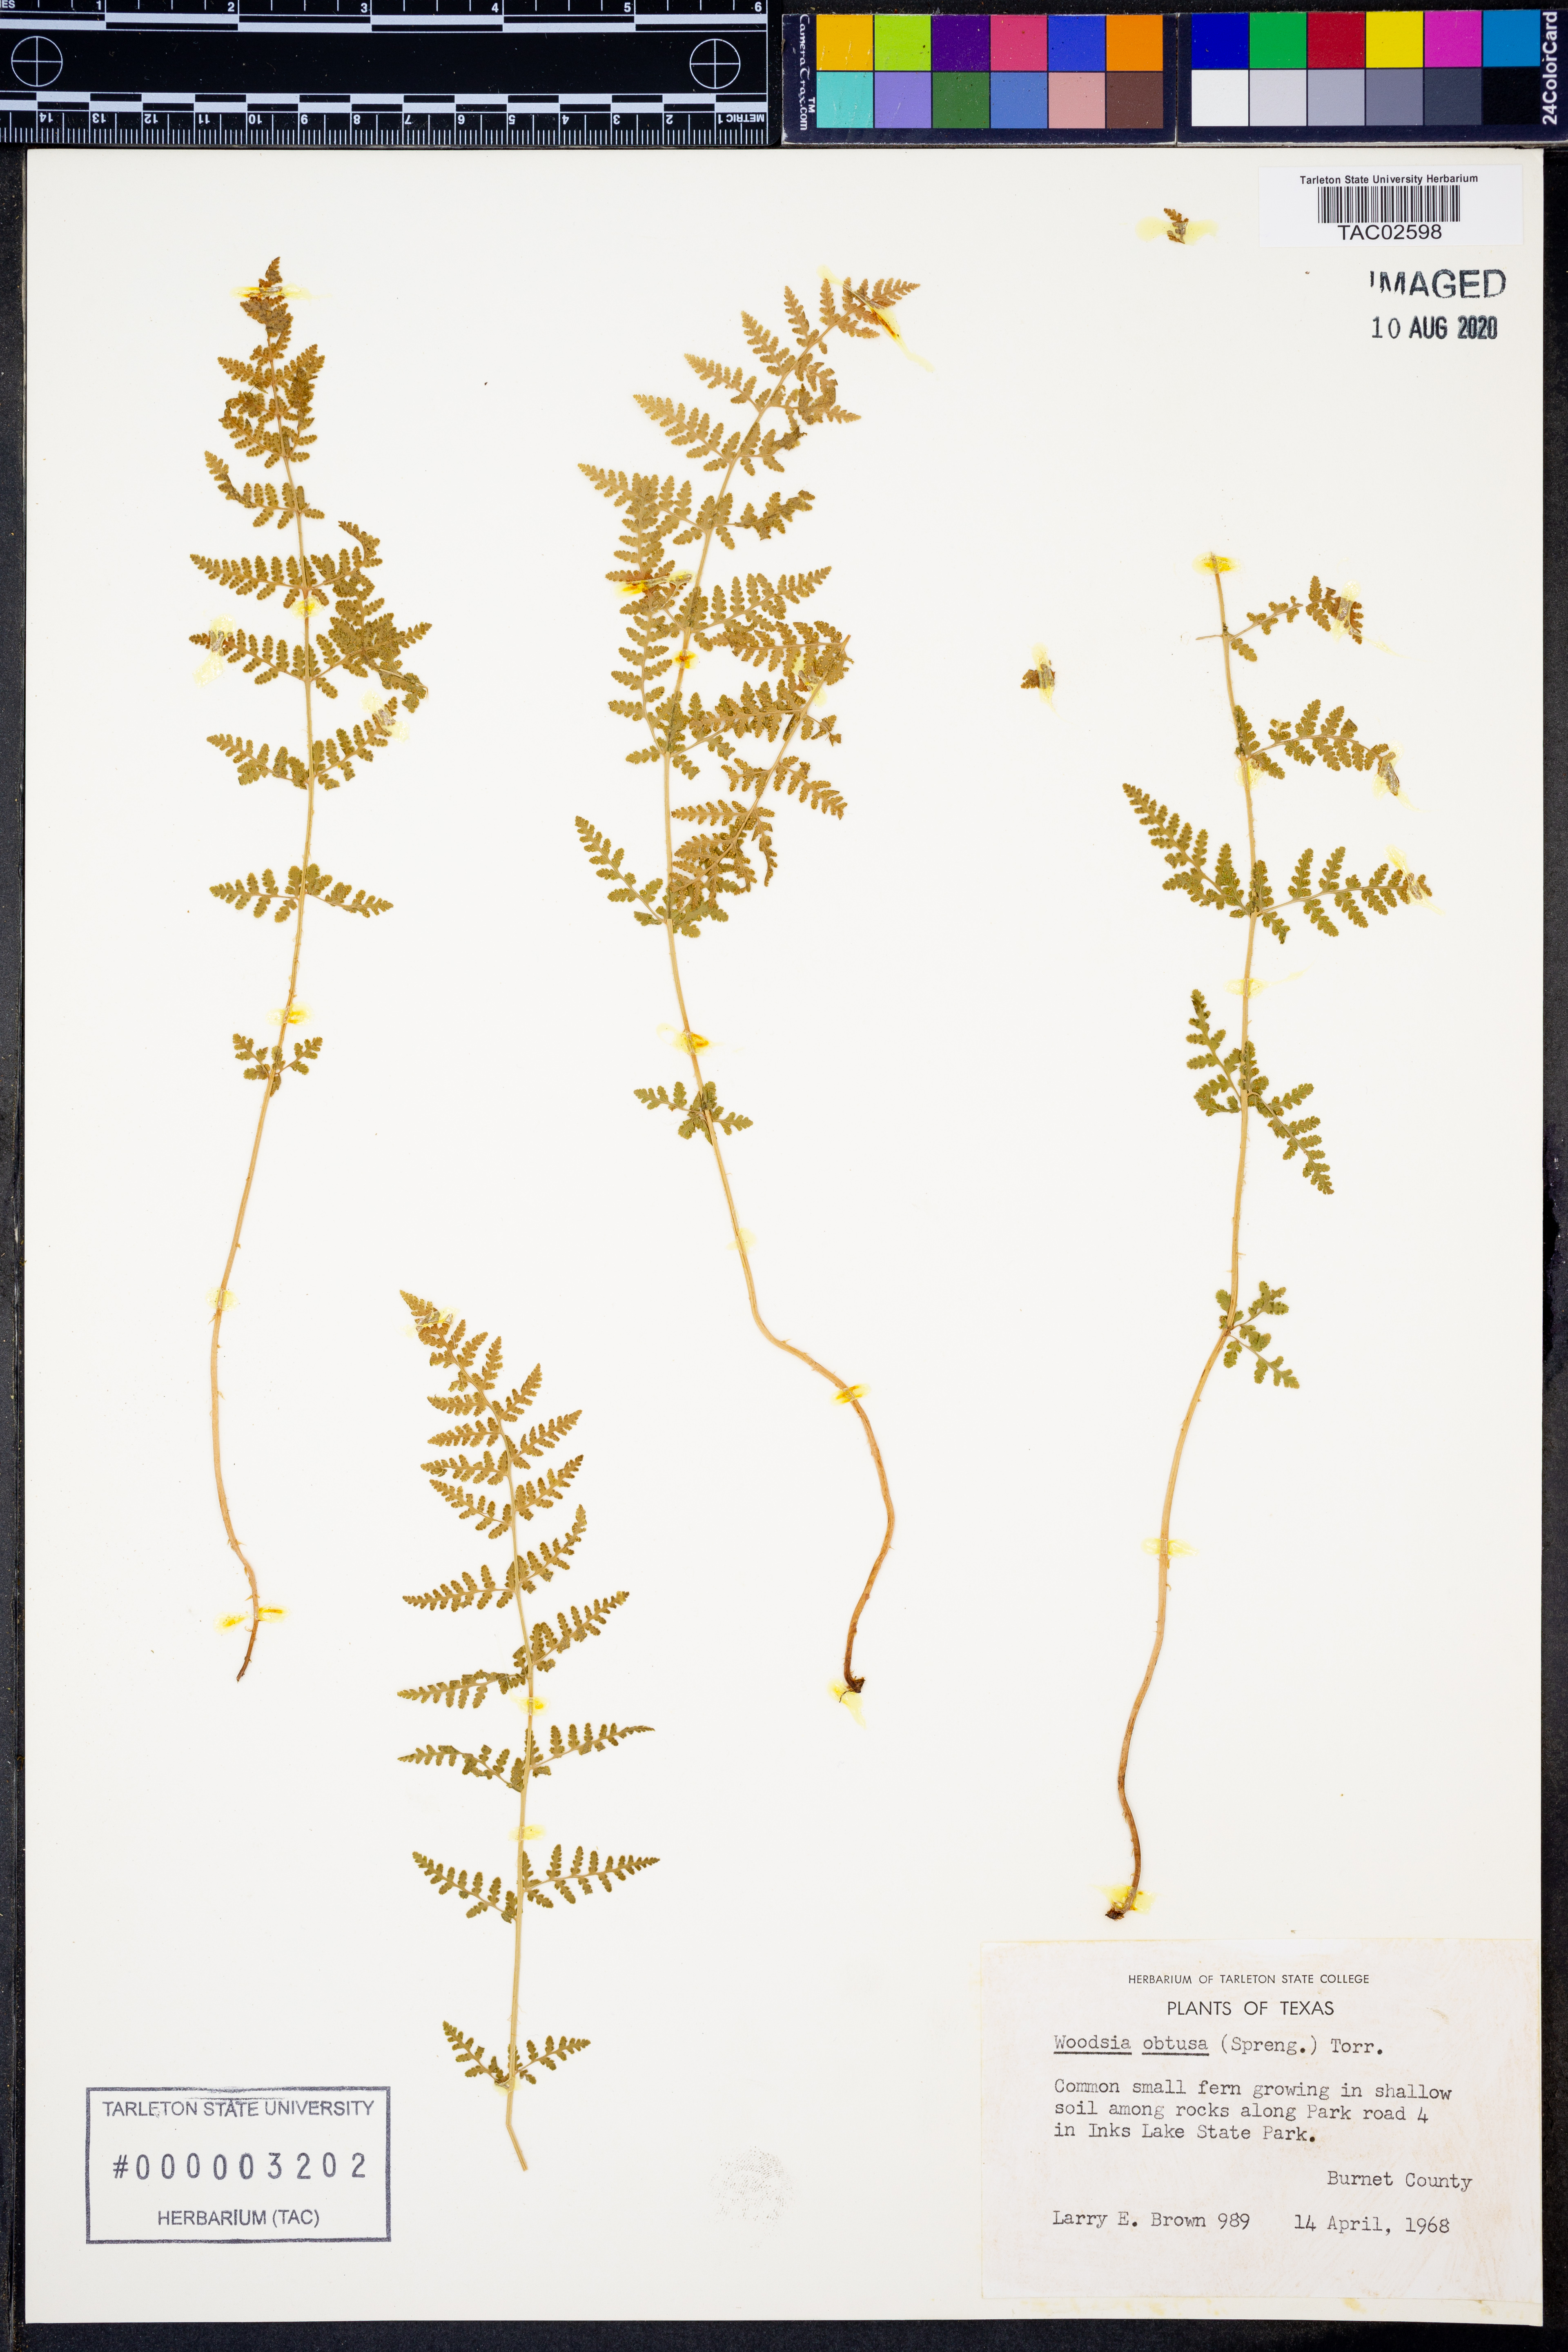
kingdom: Plantae
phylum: Tracheophyta
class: Polypodiopsida
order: Polypodiales
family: Woodsiaceae
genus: Physematium
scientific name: Physematium obtusum
